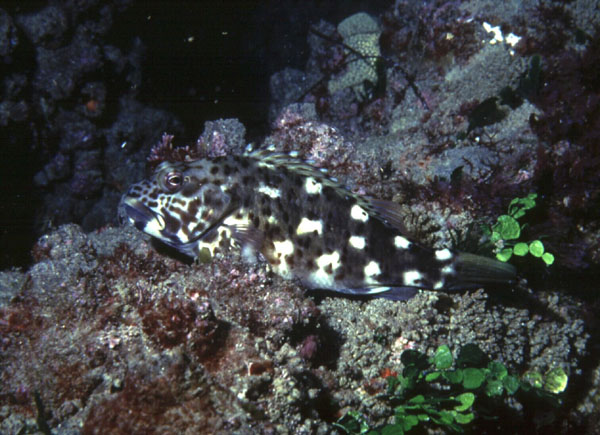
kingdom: Animalia
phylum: Chordata
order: Perciformes
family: Cirrhitidae
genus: Cirrhitus
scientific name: Cirrhitus pinnulatus
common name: Stocky hawkfish
